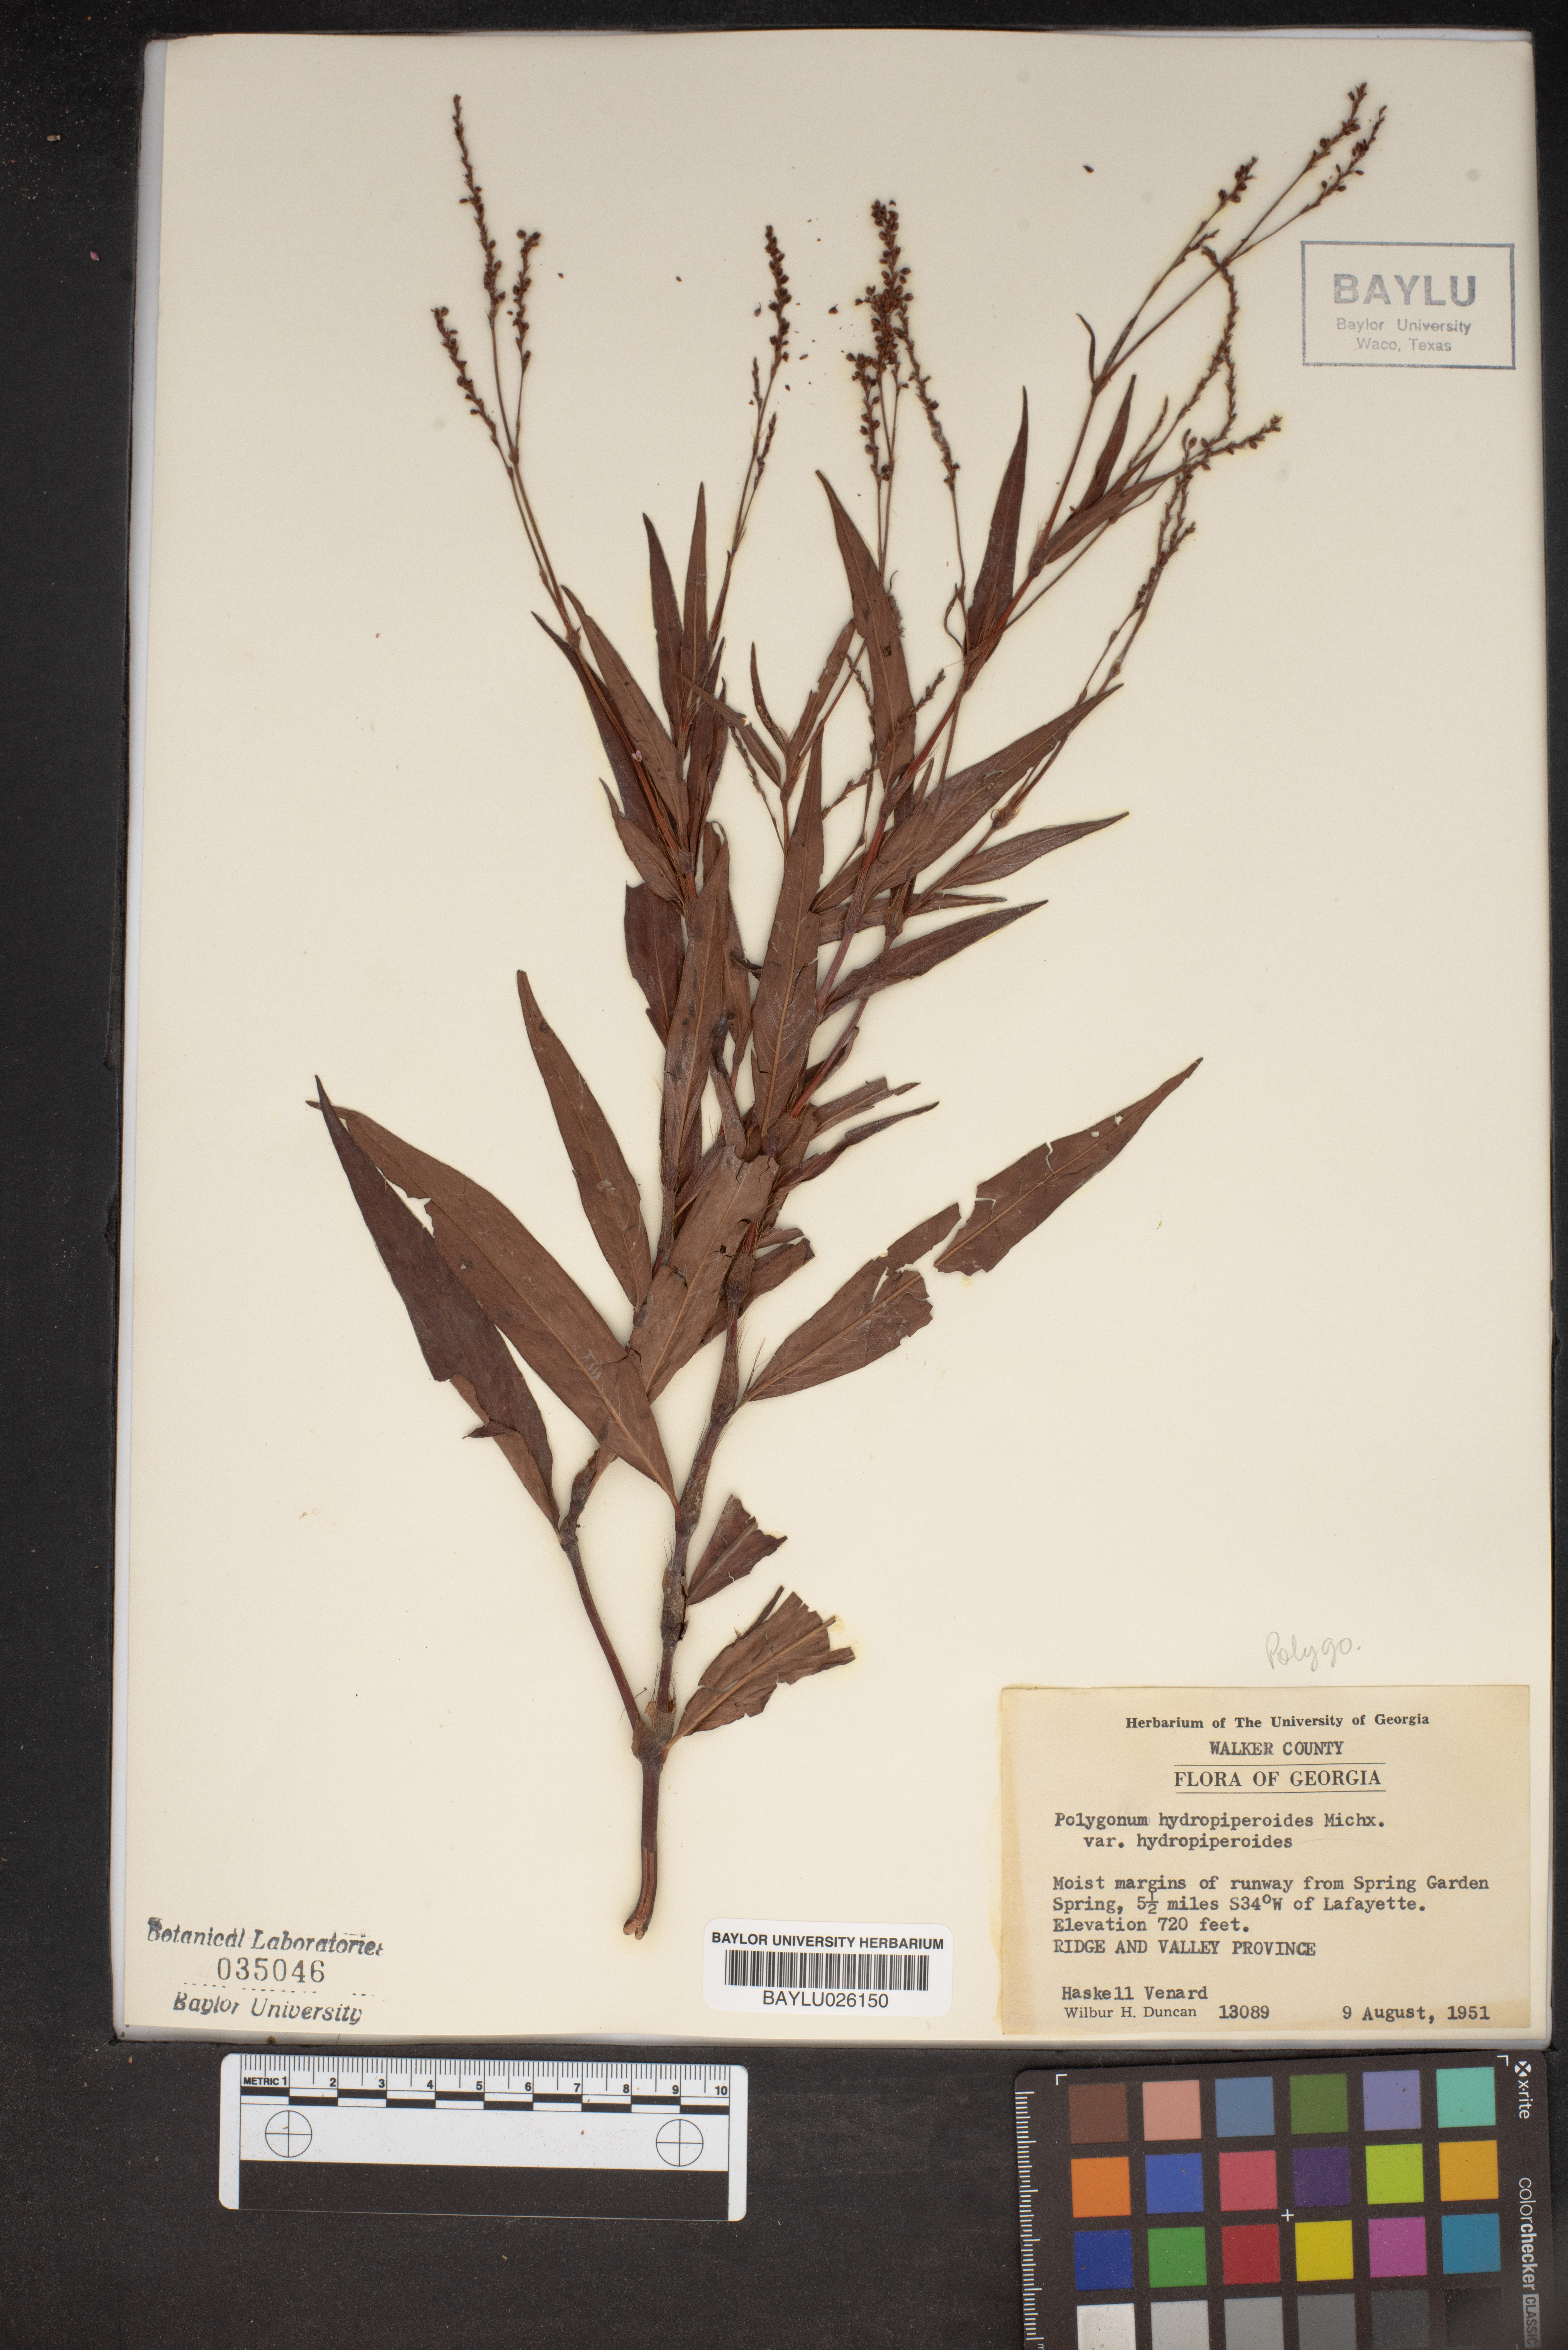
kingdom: Plantae
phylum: Tracheophyta
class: Magnoliopsida
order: Caryophyllales
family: Polygonaceae
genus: Persicaria
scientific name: Persicaria hydropiperoides
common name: Swamp smartweed
